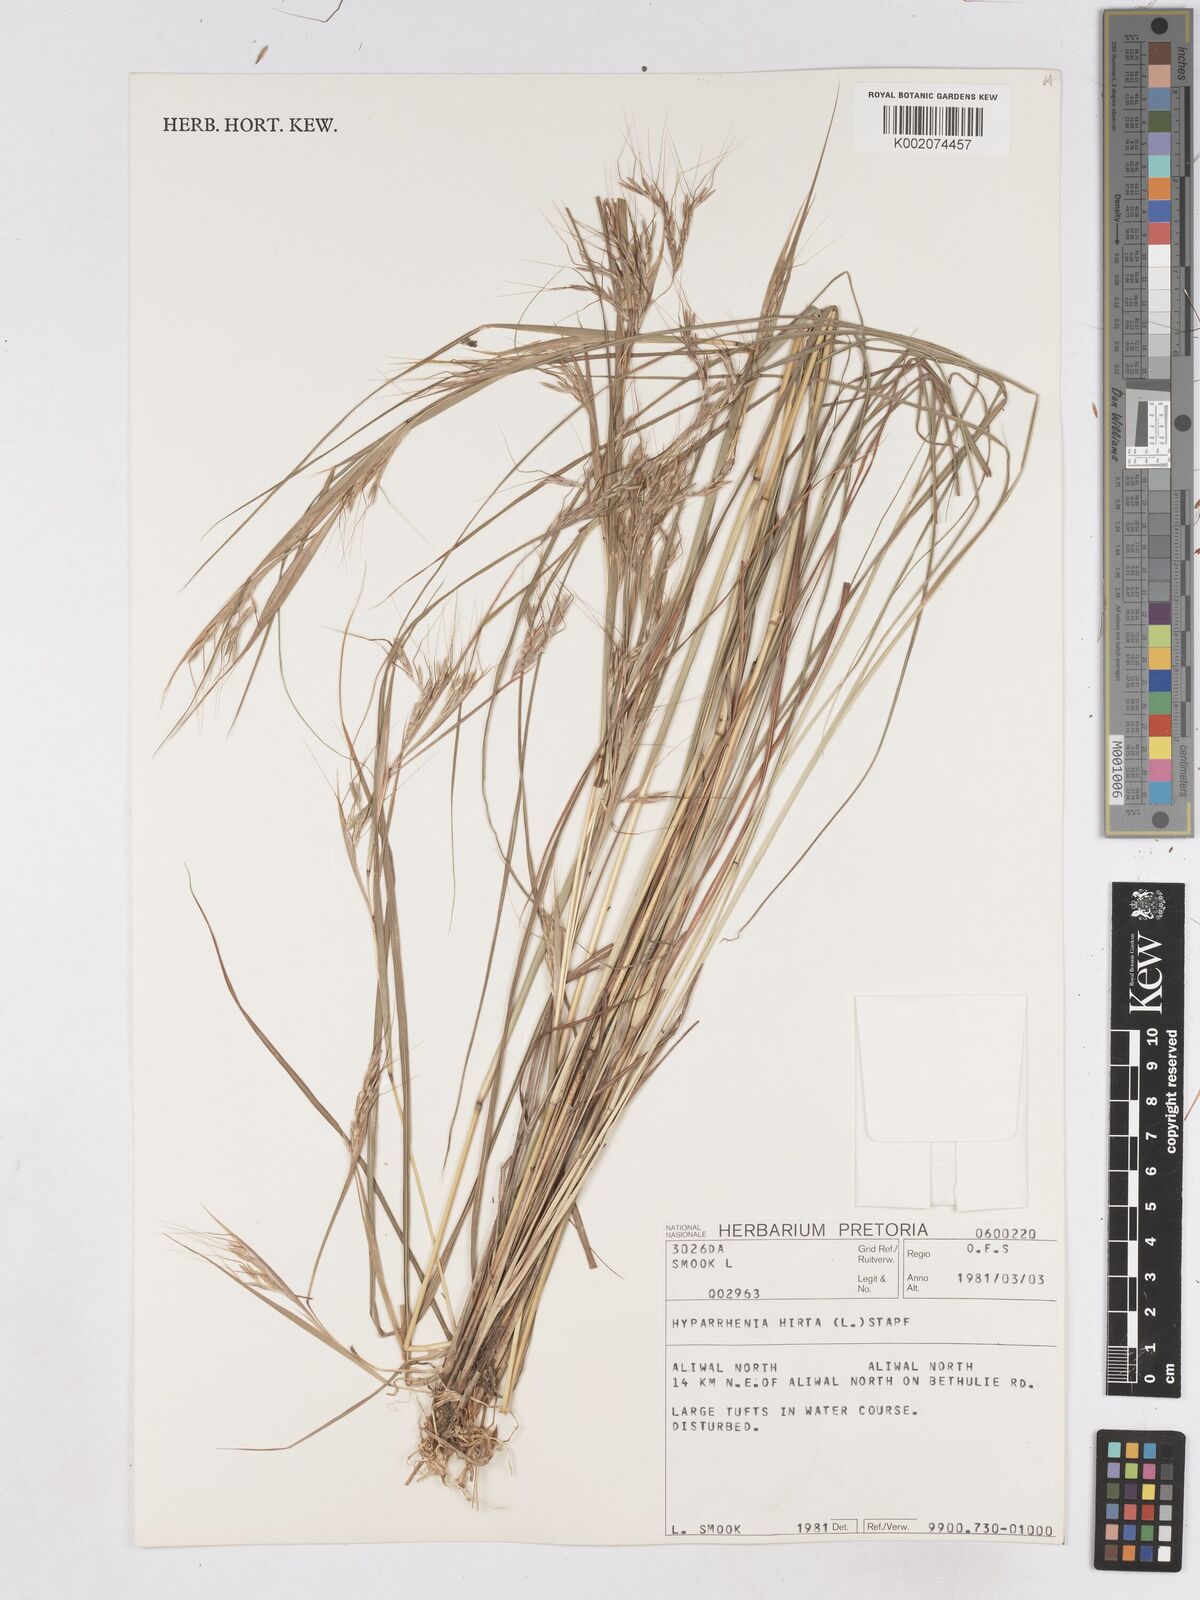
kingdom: Plantae
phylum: Tracheophyta
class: Liliopsida
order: Poales
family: Poaceae
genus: Hyparrhenia
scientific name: Hyparrhenia hirta
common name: Thatching grass
